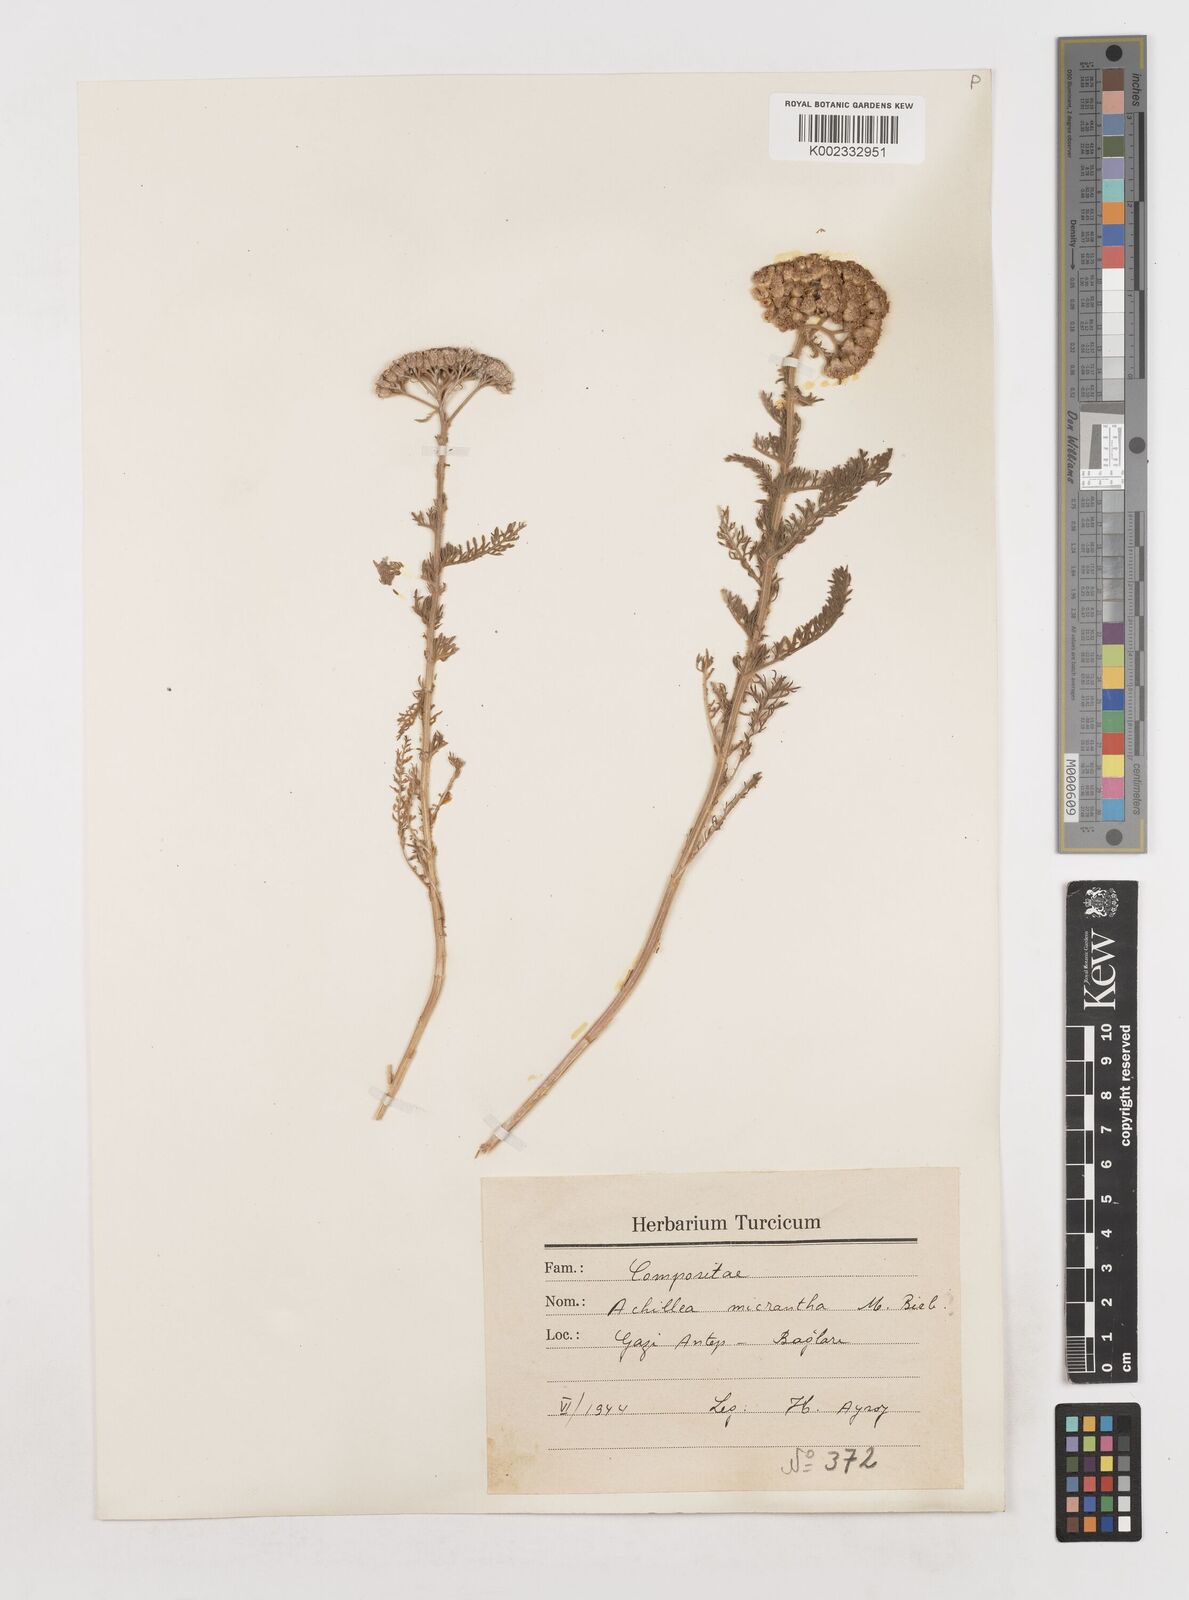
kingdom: Plantae
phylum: Tracheophyta
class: Magnoliopsida
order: Asterales
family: Asteraceae
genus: Achillea
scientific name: Achillea arabica
